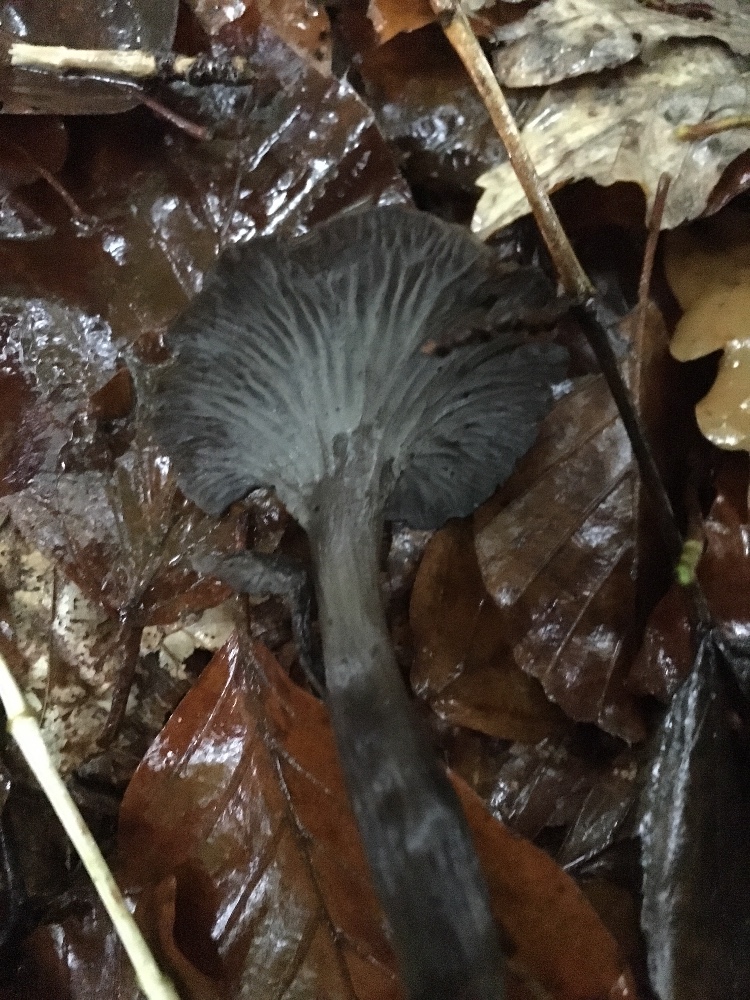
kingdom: Fungi
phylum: Basidiomycota
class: Agaricomycetes
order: Cantharellales
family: Hydnaceae
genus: Cantharellus
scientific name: Cantharellus cinereus
